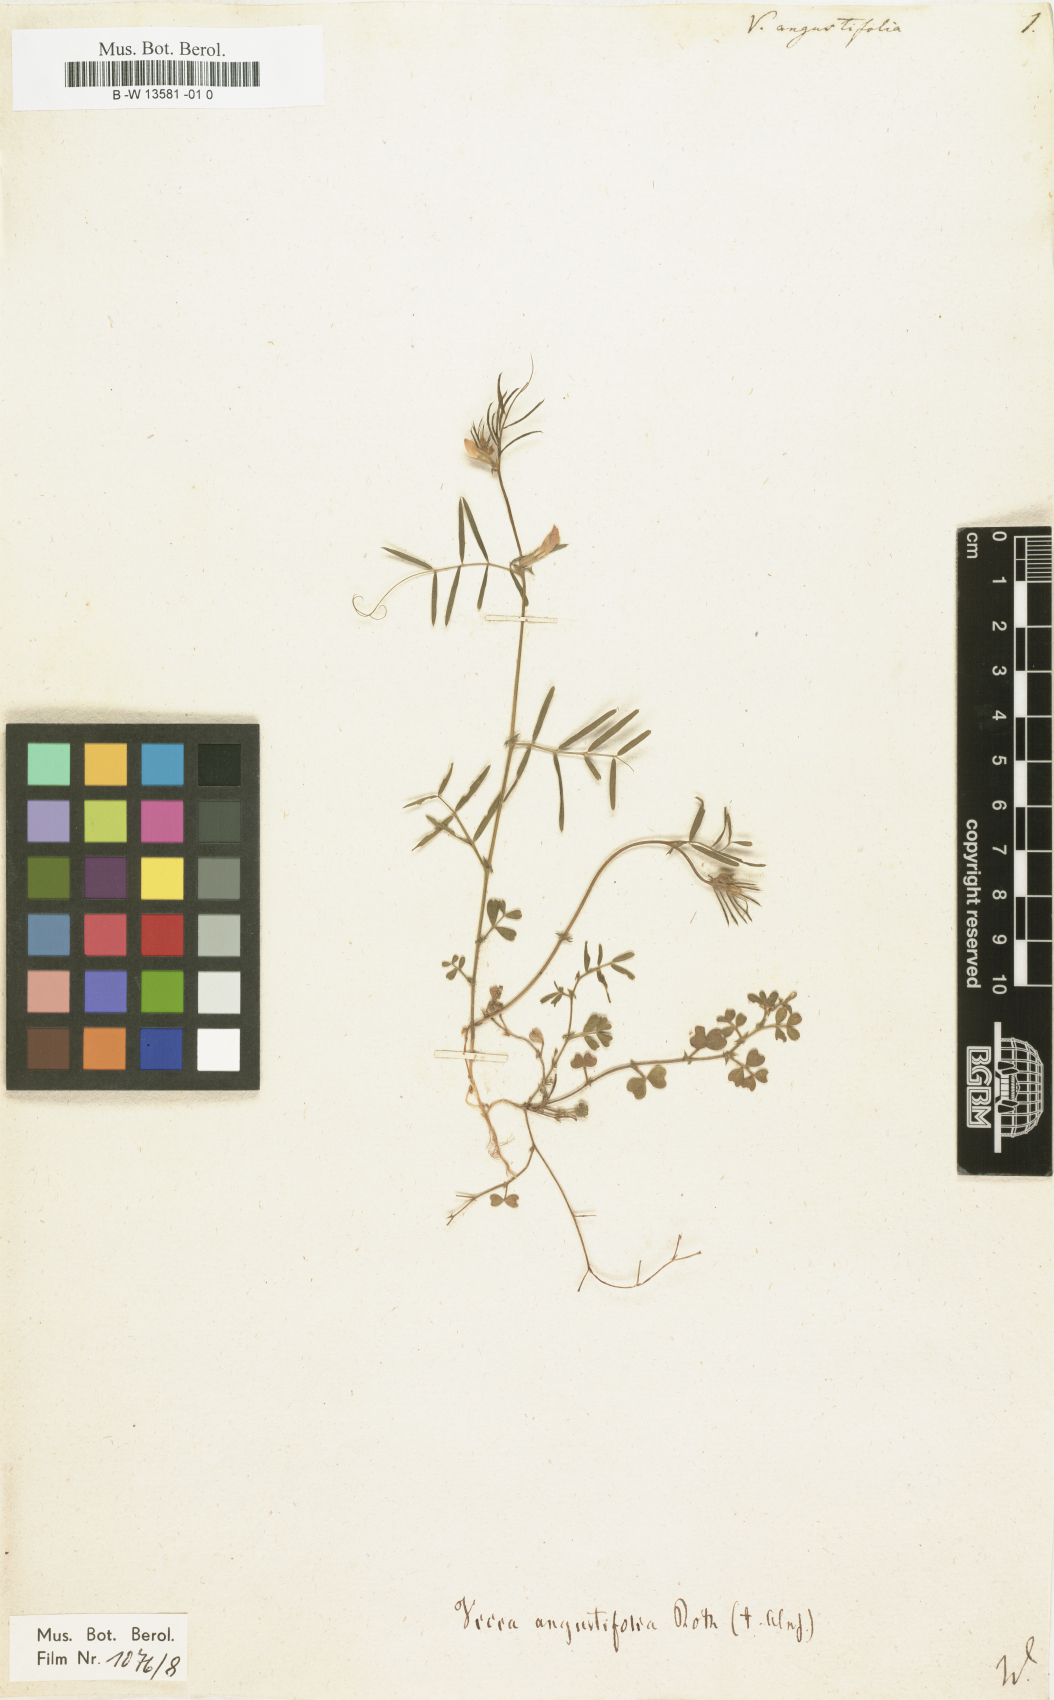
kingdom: Plantae
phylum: Tracheophyta
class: Magnoliopsida
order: Fabales
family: Fabaceae
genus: Vicia
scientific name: Vicia
